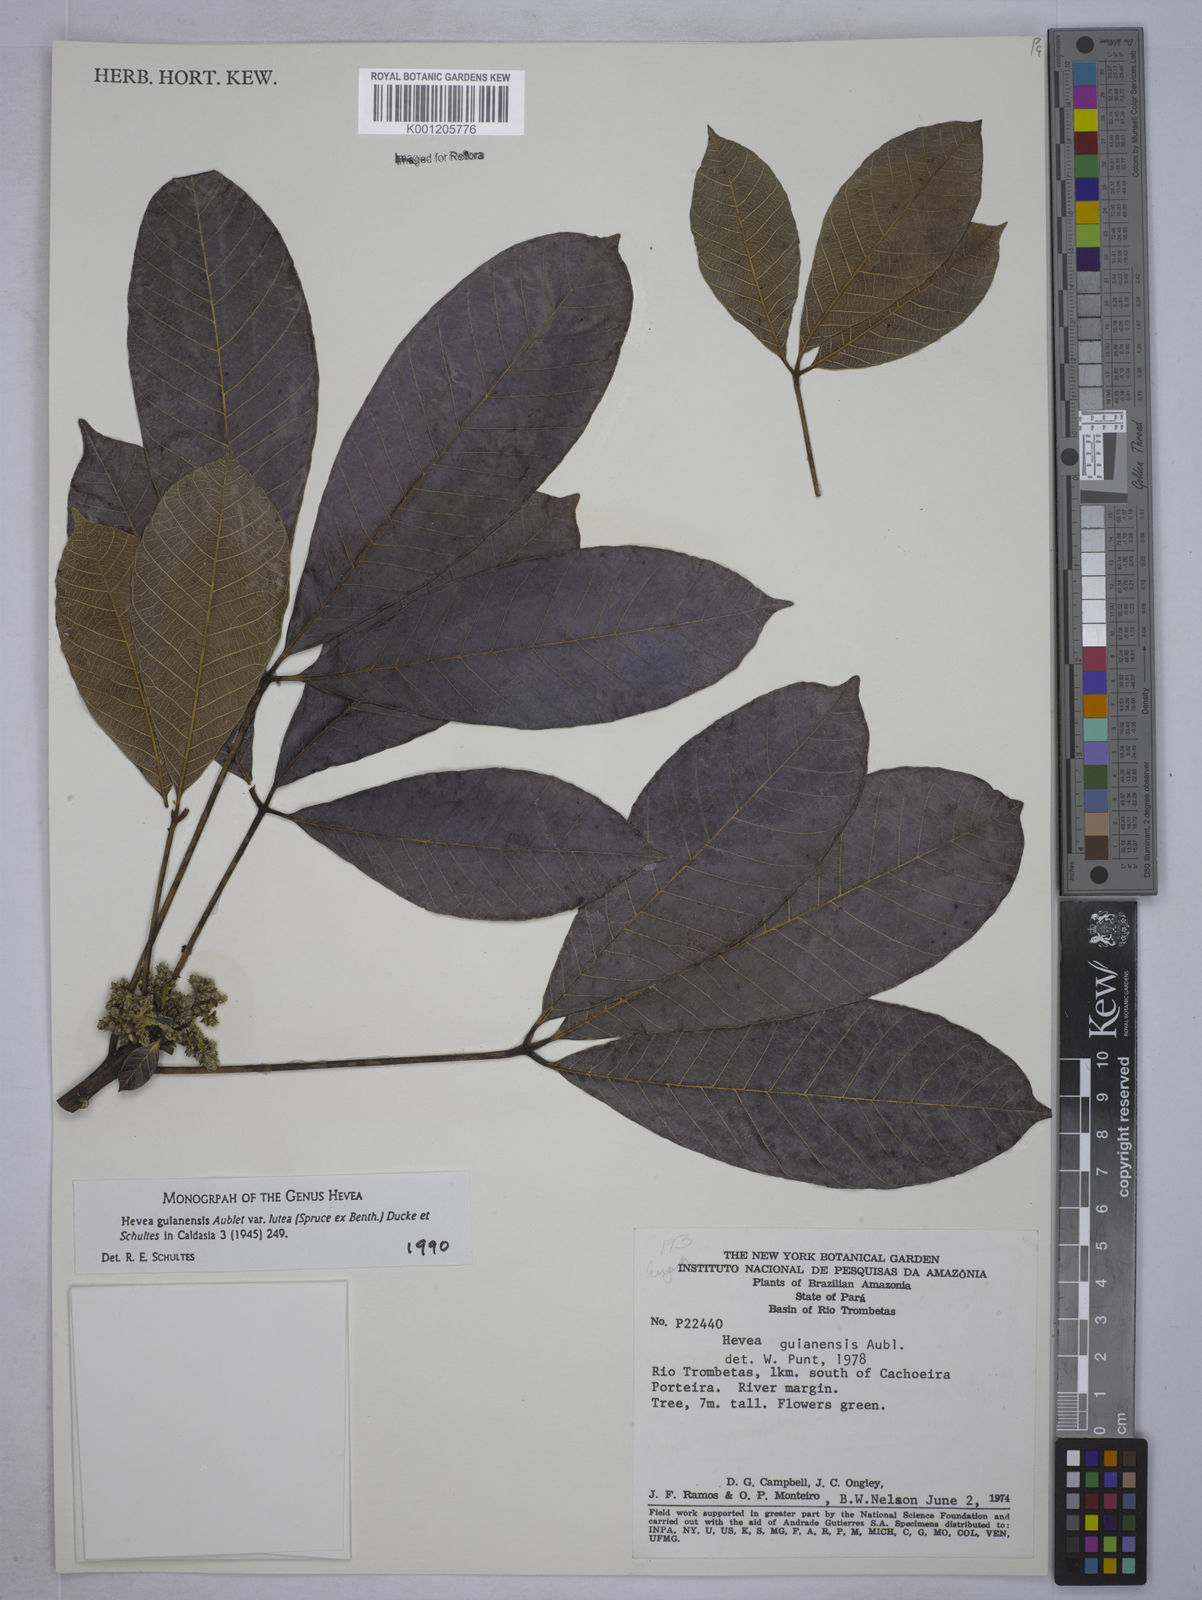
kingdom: Plantae
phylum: Tracheophyta
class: Magnoliopsida
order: Malpighiales
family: Euphorbiaceae
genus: Hevea
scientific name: Hevea guianensis
